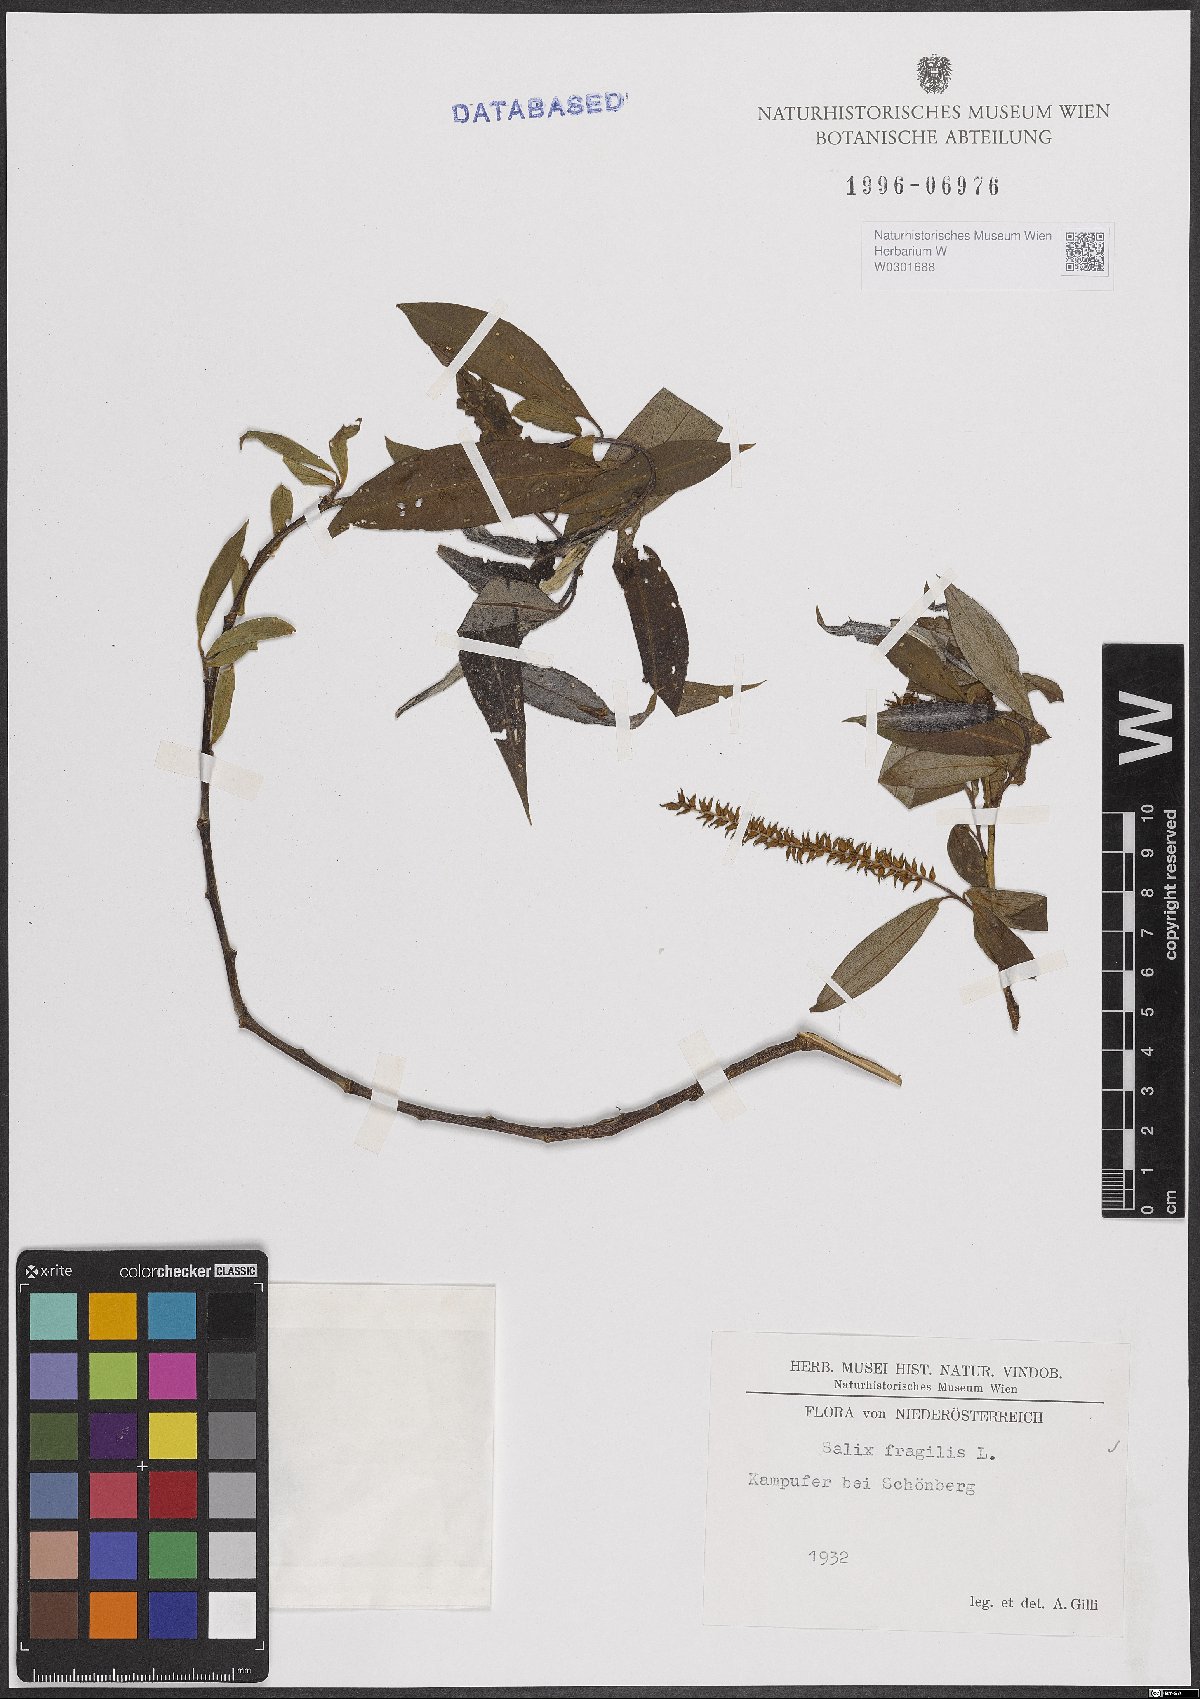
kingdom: Plantae
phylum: Tracheophyta
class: Magnoliopsida
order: Malpighiales
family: Salicaceae
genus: Salix
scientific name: Salix fragilis
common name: Crack willow
